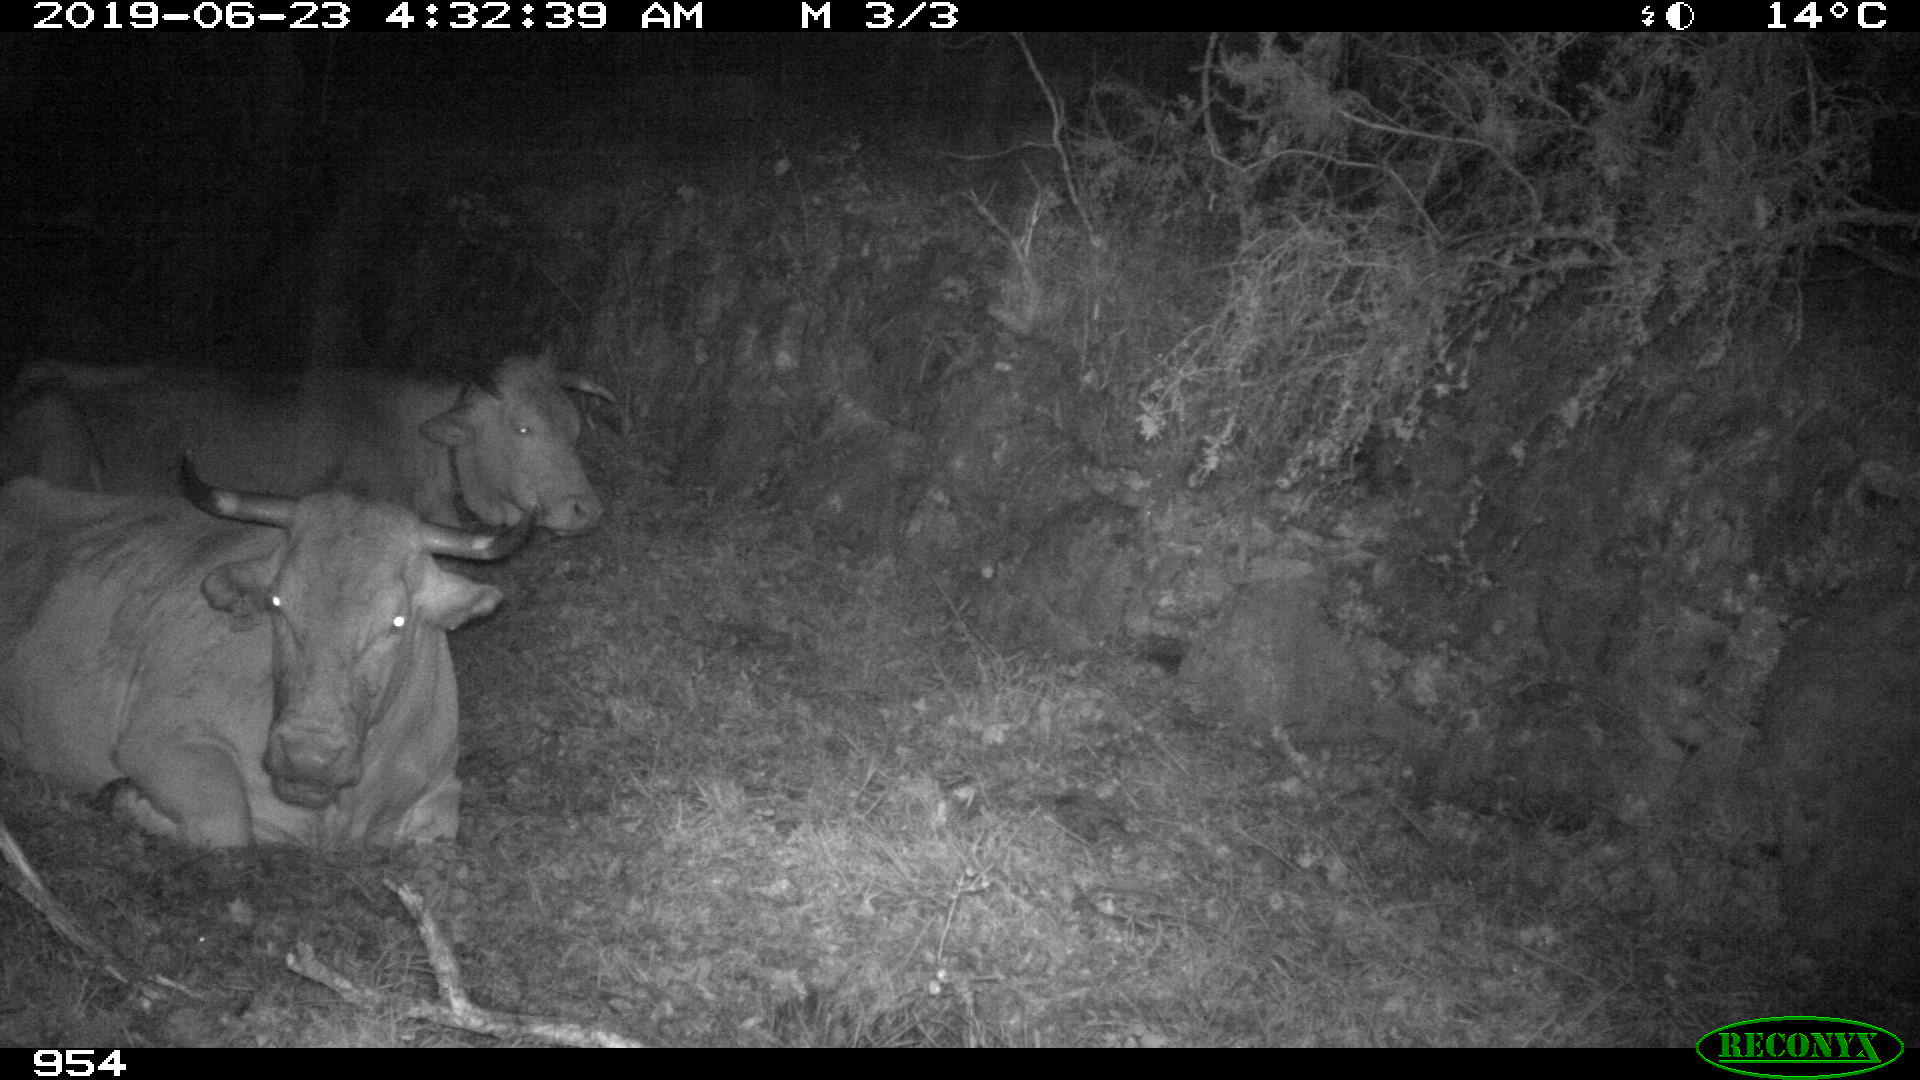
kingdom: Animalia
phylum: Chordata
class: Mammalia
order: Artiodactyla
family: Bovidae
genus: Bos
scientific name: Bos taurus
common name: Domesticated cattle
